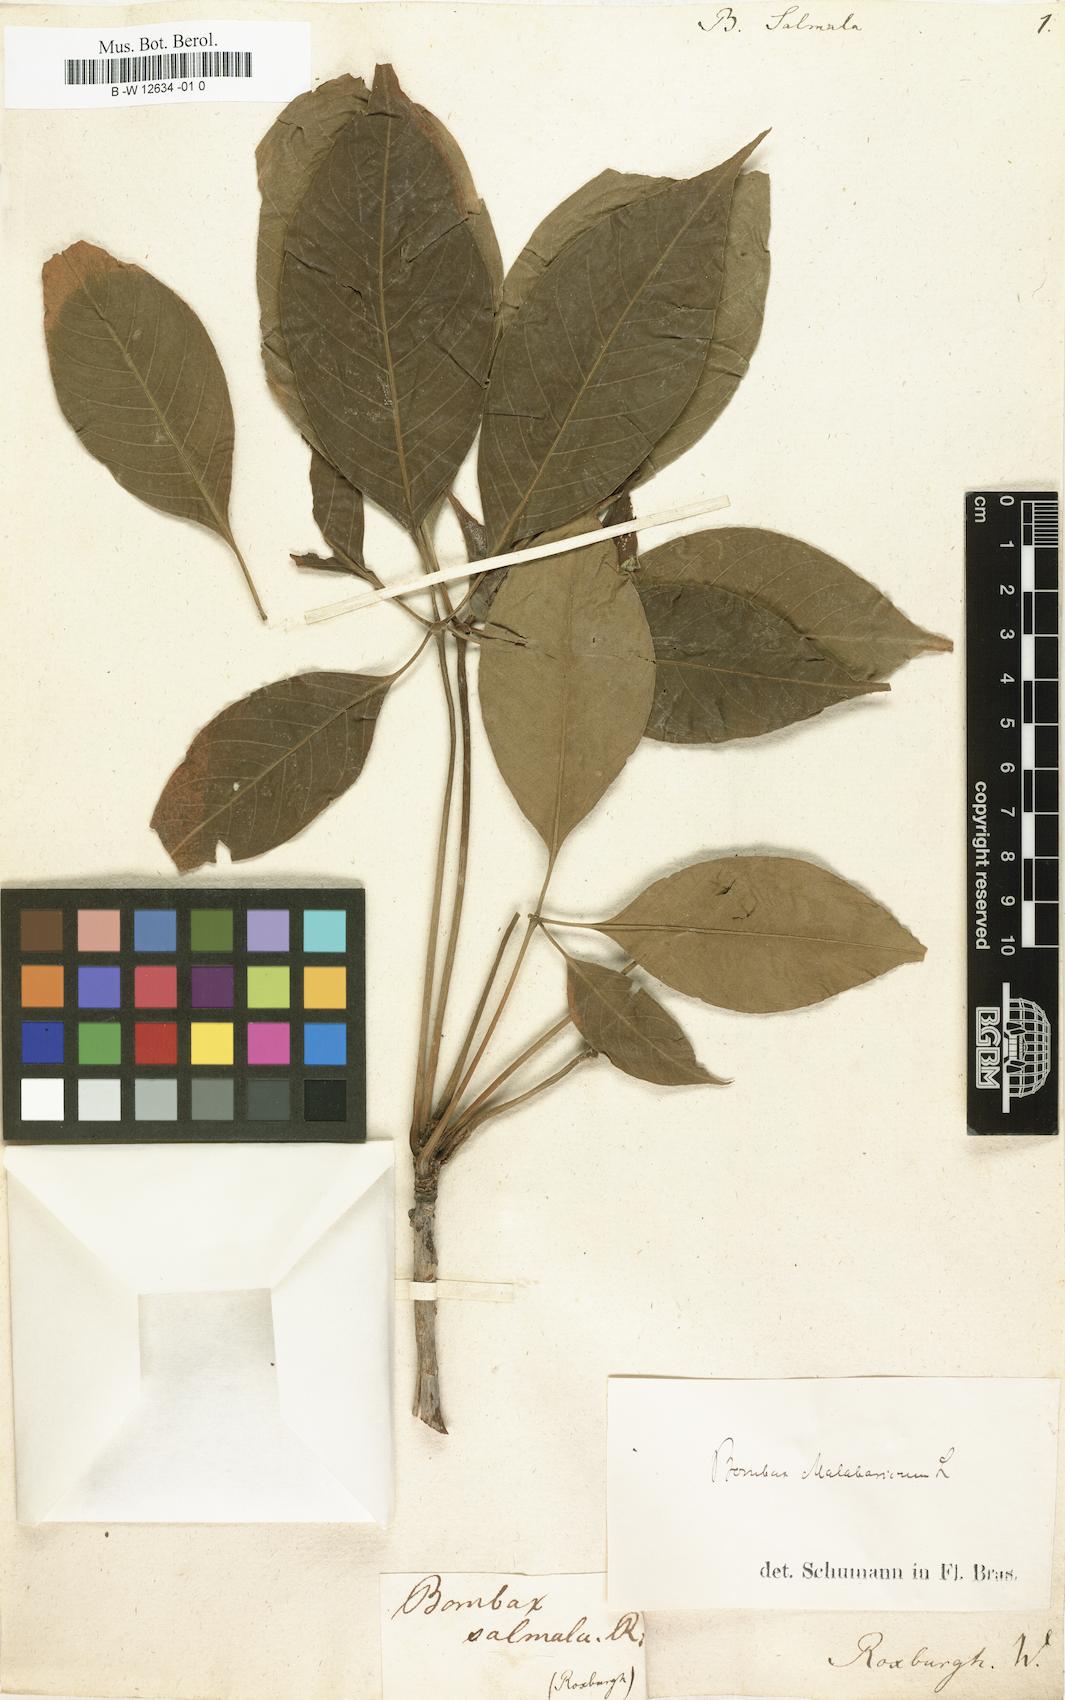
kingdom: Plantae
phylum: Tracheophyta
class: Magnoliopsida
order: Malvales
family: Malvaceae
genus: Bombax
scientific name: Bombax
